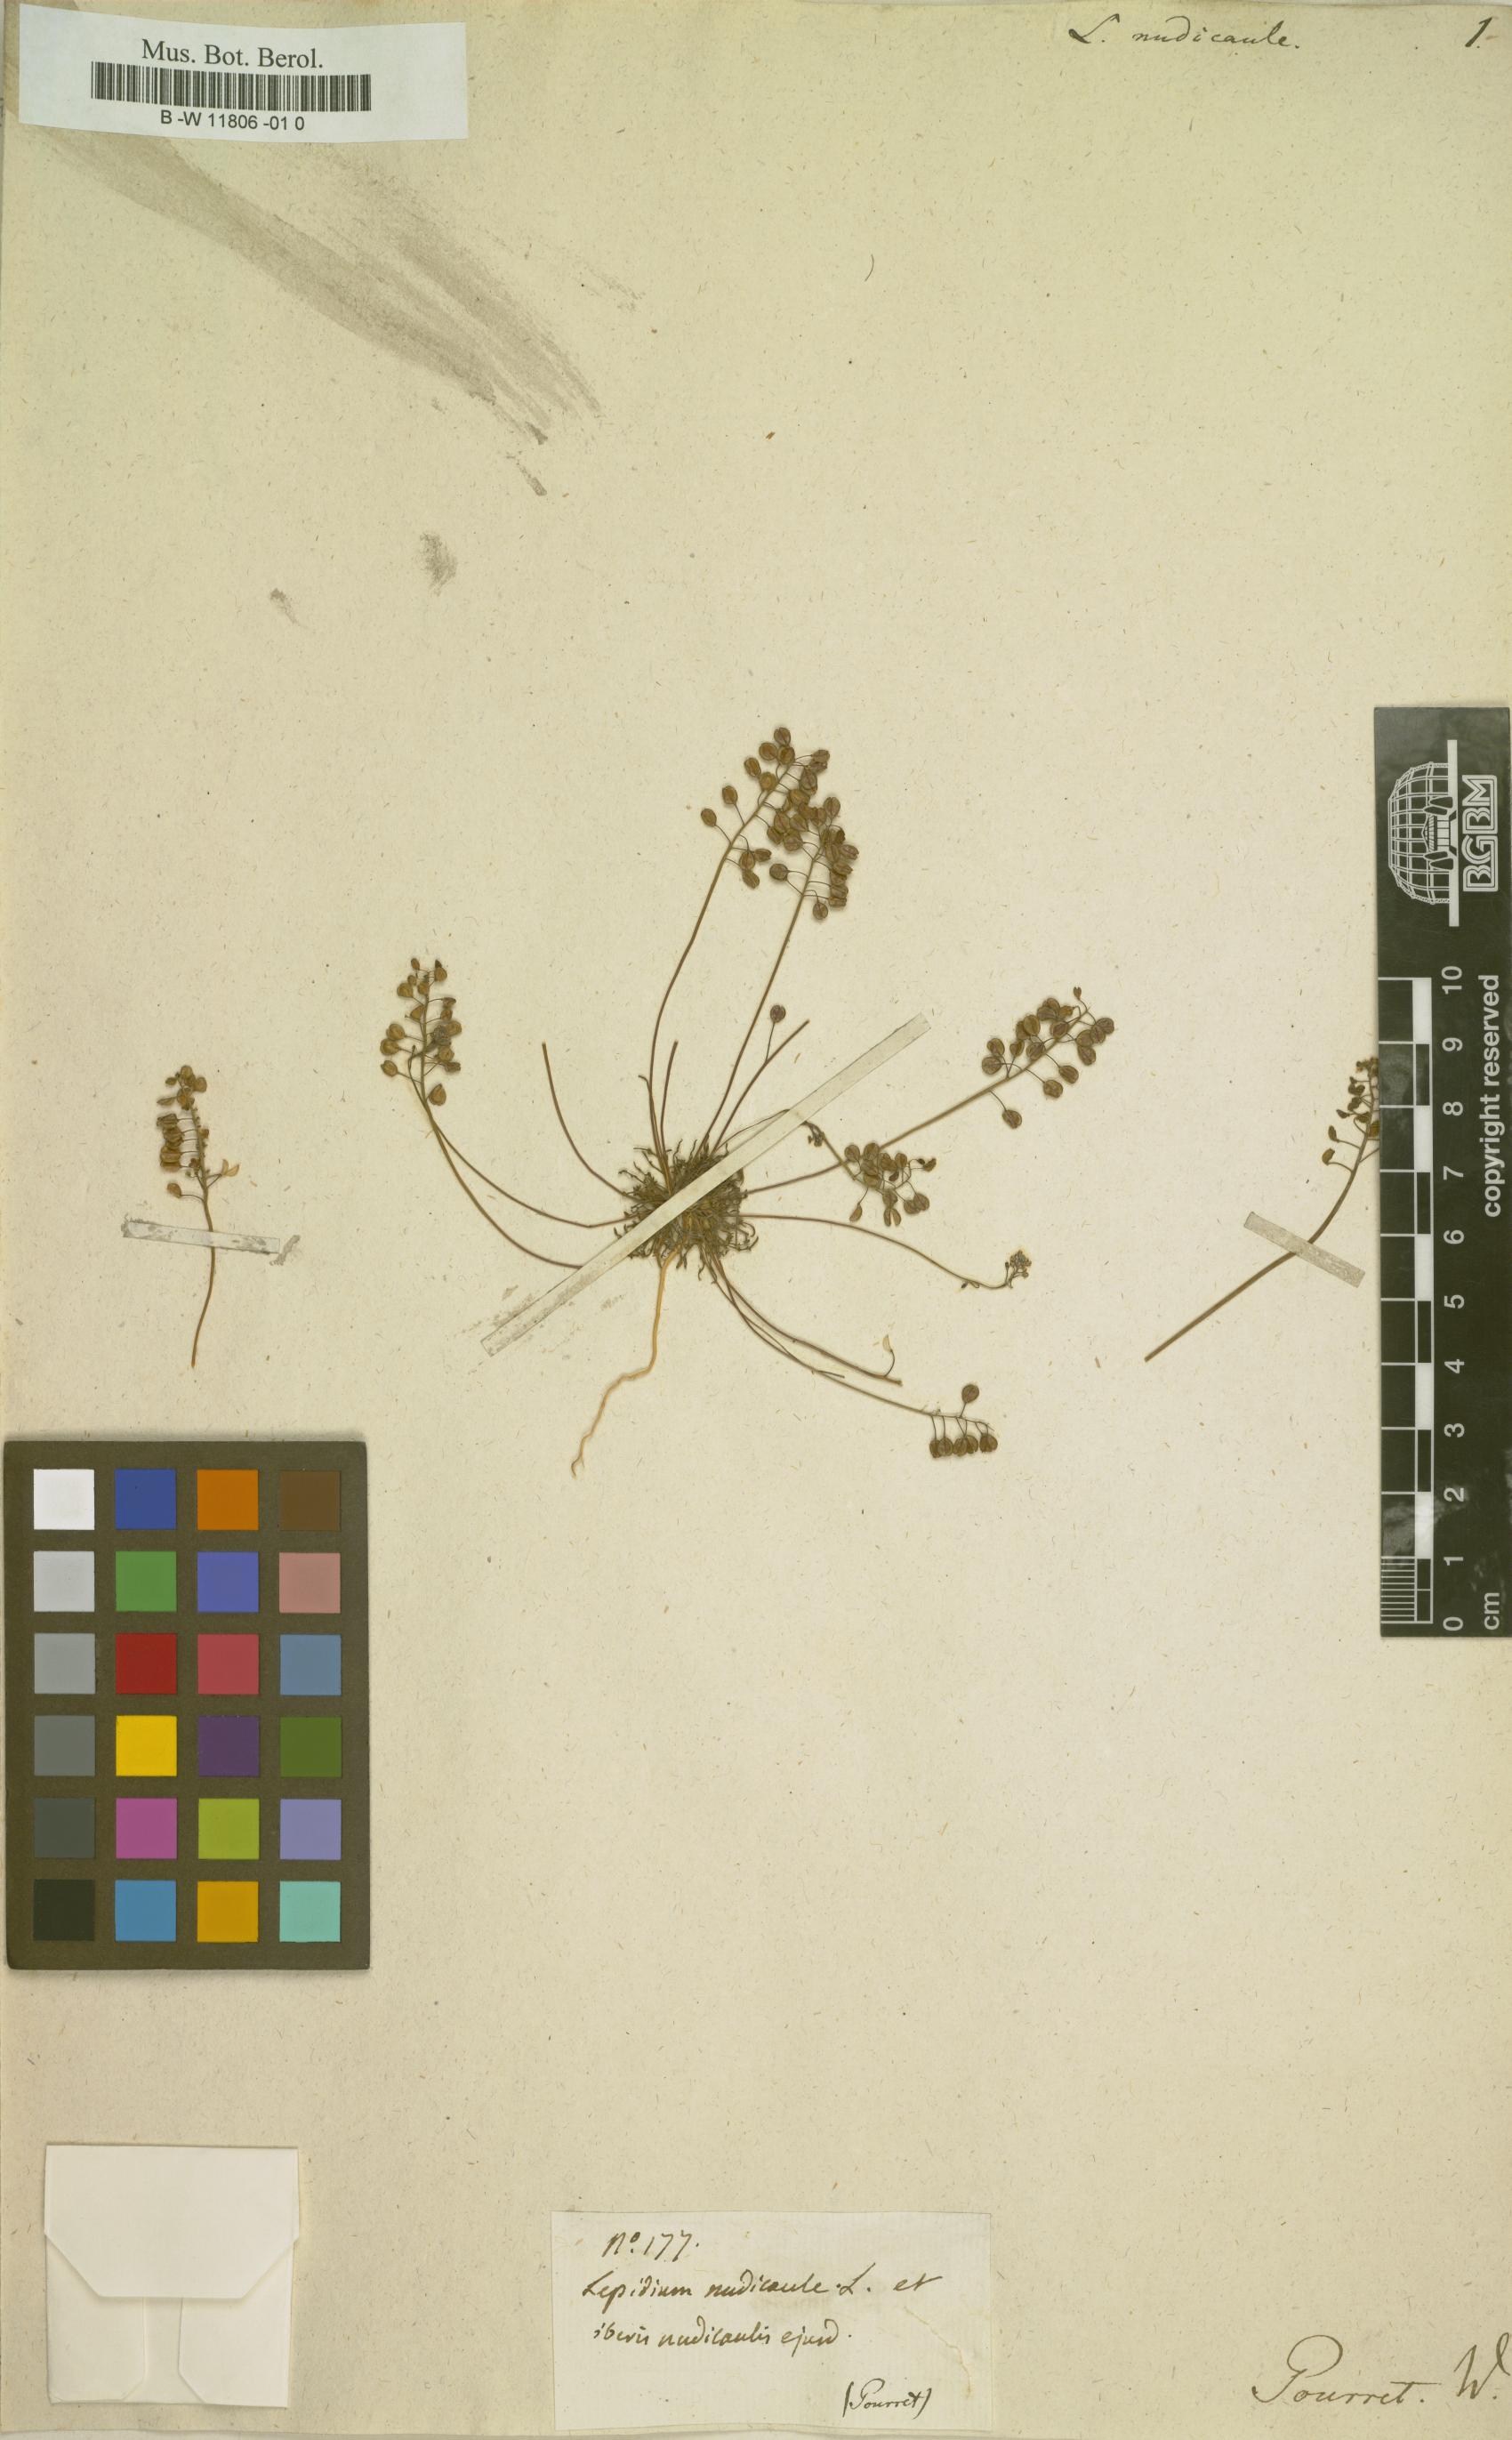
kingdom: Plantae
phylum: Tracheophyta
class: Magnoliopsida
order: Brassicales
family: Brassicaceae
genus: Teesdalia
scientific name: Teesdalia nudicaulis
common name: Shepherd's cress
